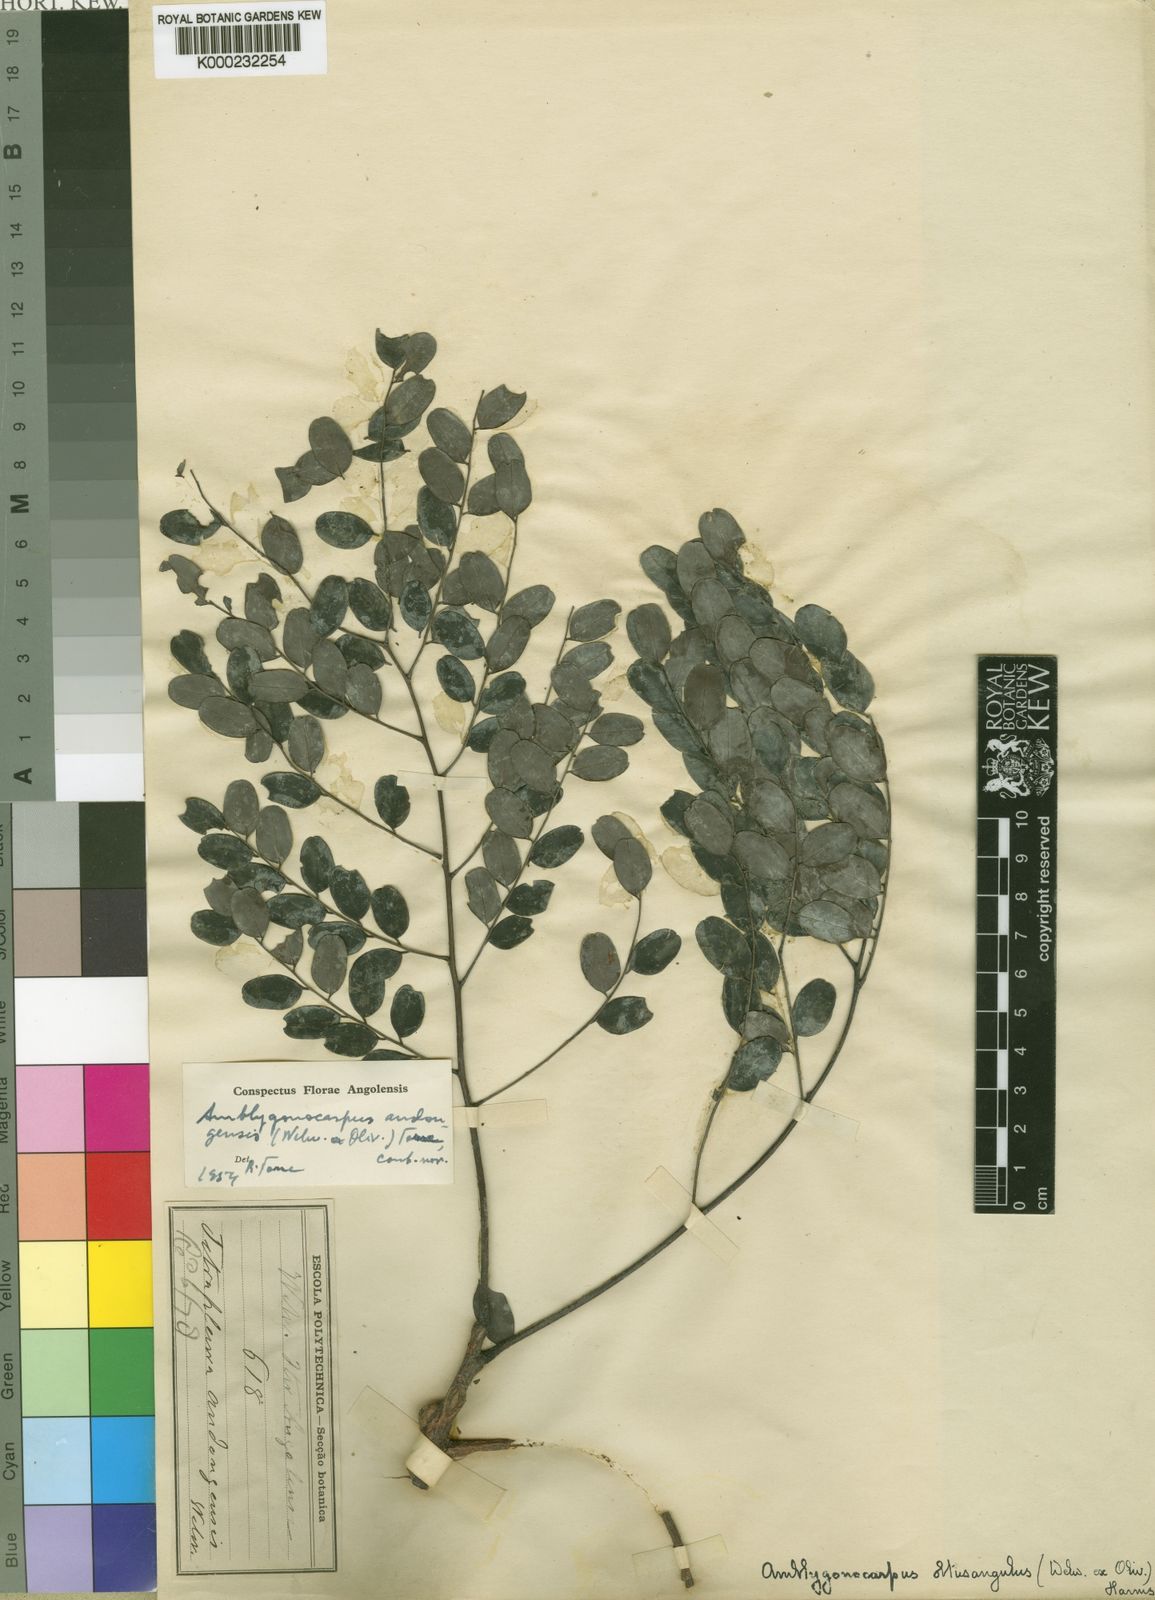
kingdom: Plantae
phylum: Tracheophyta
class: Magnoliopsida
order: Fabales
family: Fabaceae
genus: Amblygonocarpus
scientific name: Amblygonocarpus andongensis
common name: Bangawanga
